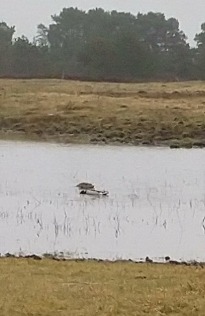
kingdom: Animalia
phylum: Chordata
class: Aves
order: Anseriformes
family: Anatidae
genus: Anas
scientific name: Anas platyrhynchos
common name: Gråand
